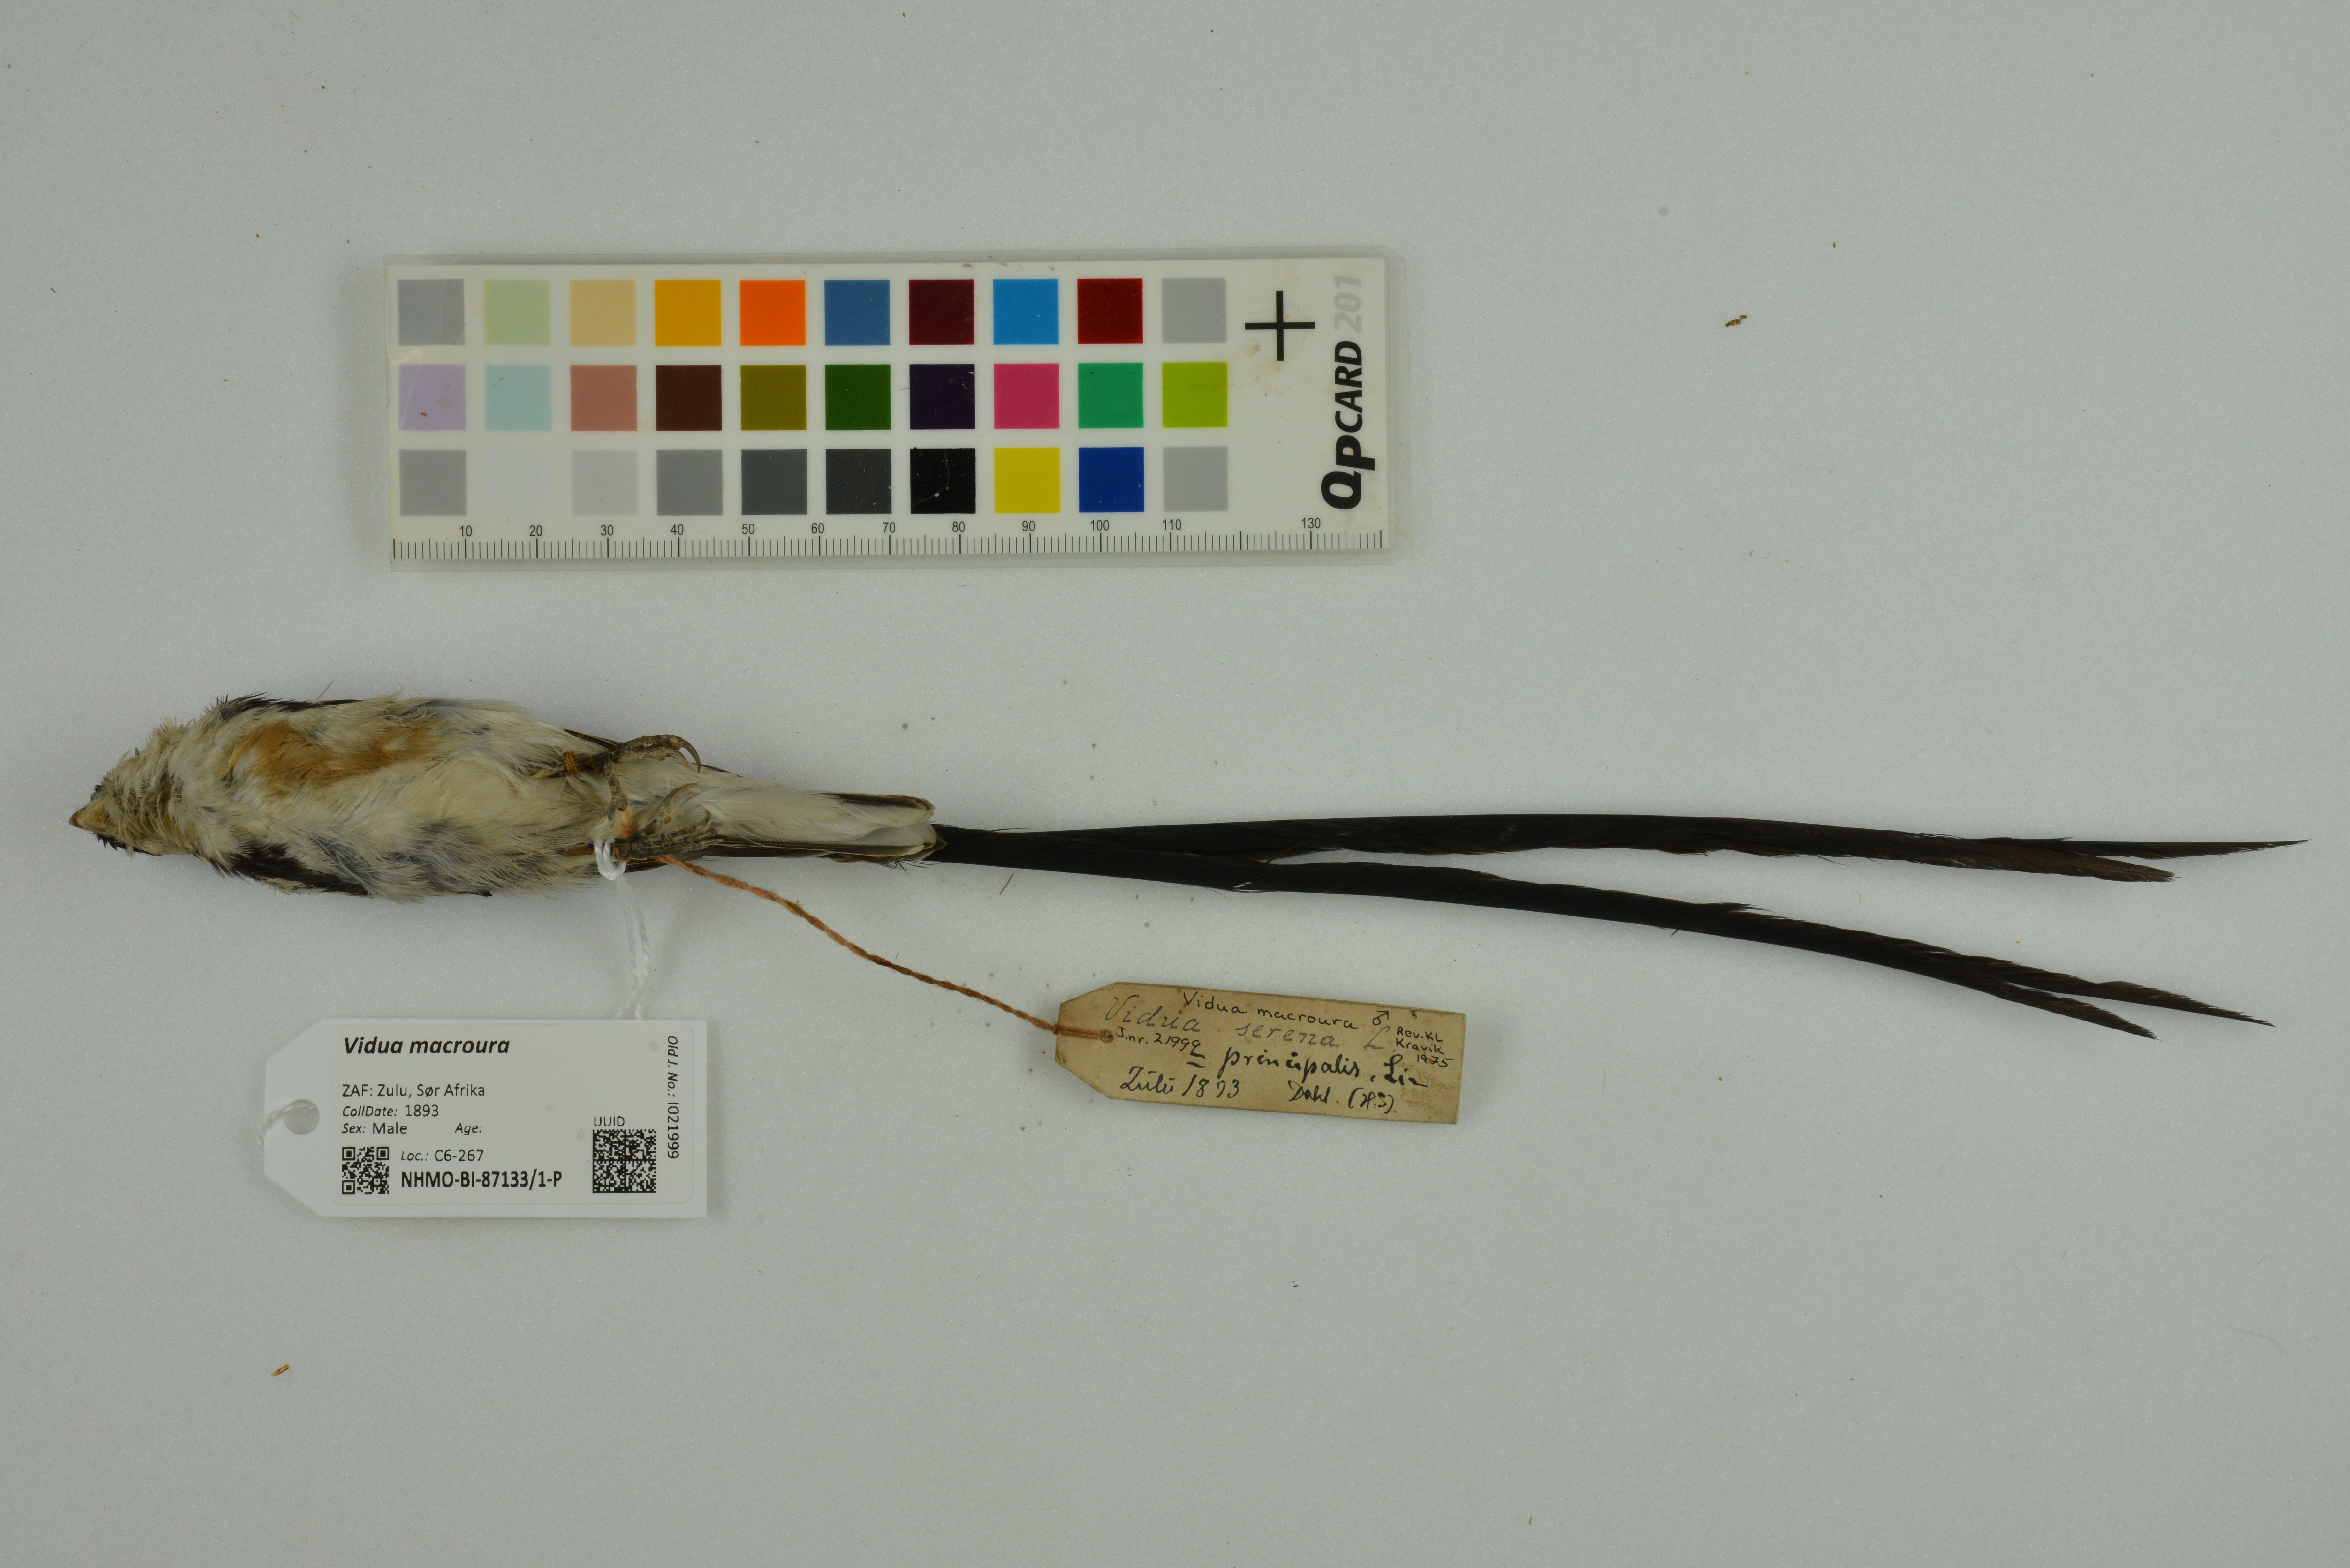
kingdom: Animalia
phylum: Chordata
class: Aves
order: Passeriformes
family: Viduidae
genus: Vidua
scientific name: Vidua macroura
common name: Pin-tailed whydah
